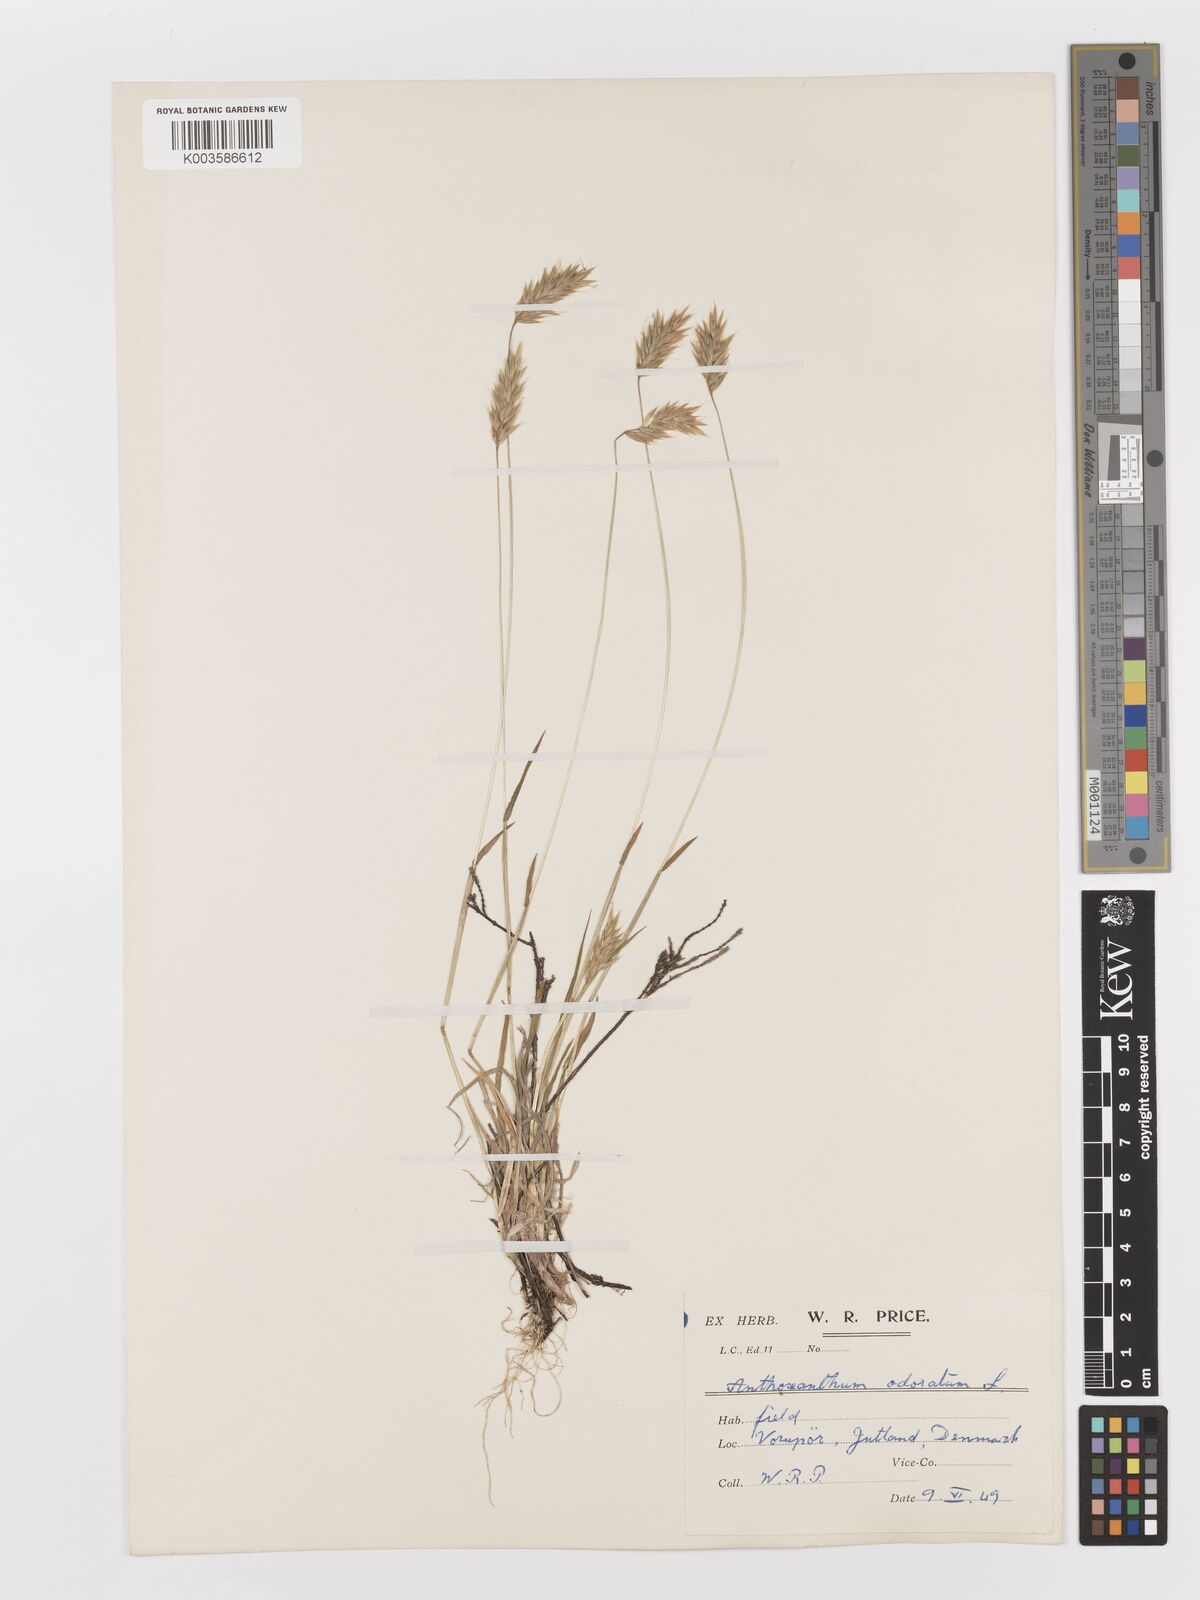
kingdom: Plantae
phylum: Tracheophyta
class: Liliopsida
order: Poales
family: Poaceae
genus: Anthoxanthum
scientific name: Anthoxanthum odoratum
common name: Sweet vernalgrass
